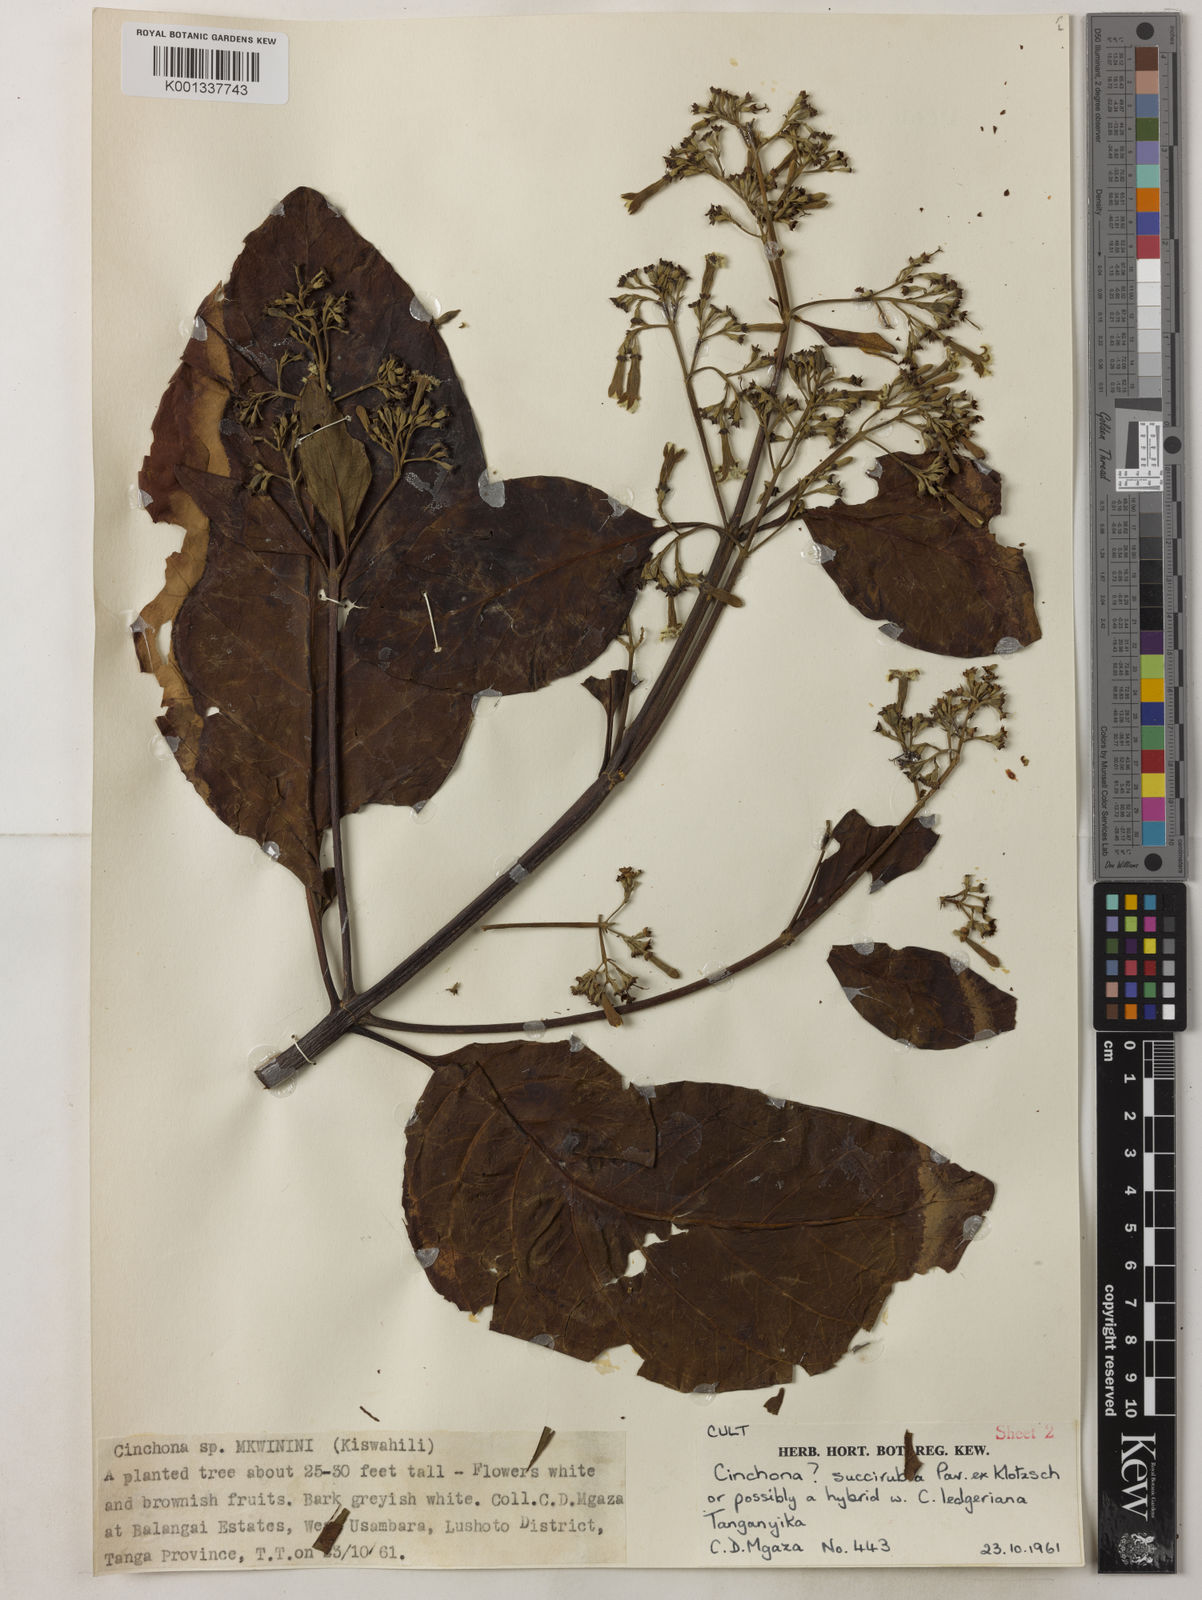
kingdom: Plantae
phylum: Tracheophyta
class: Magnoliopsida
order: Gentianales
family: Rubiaceae
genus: Cinchona
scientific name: Cinchona
